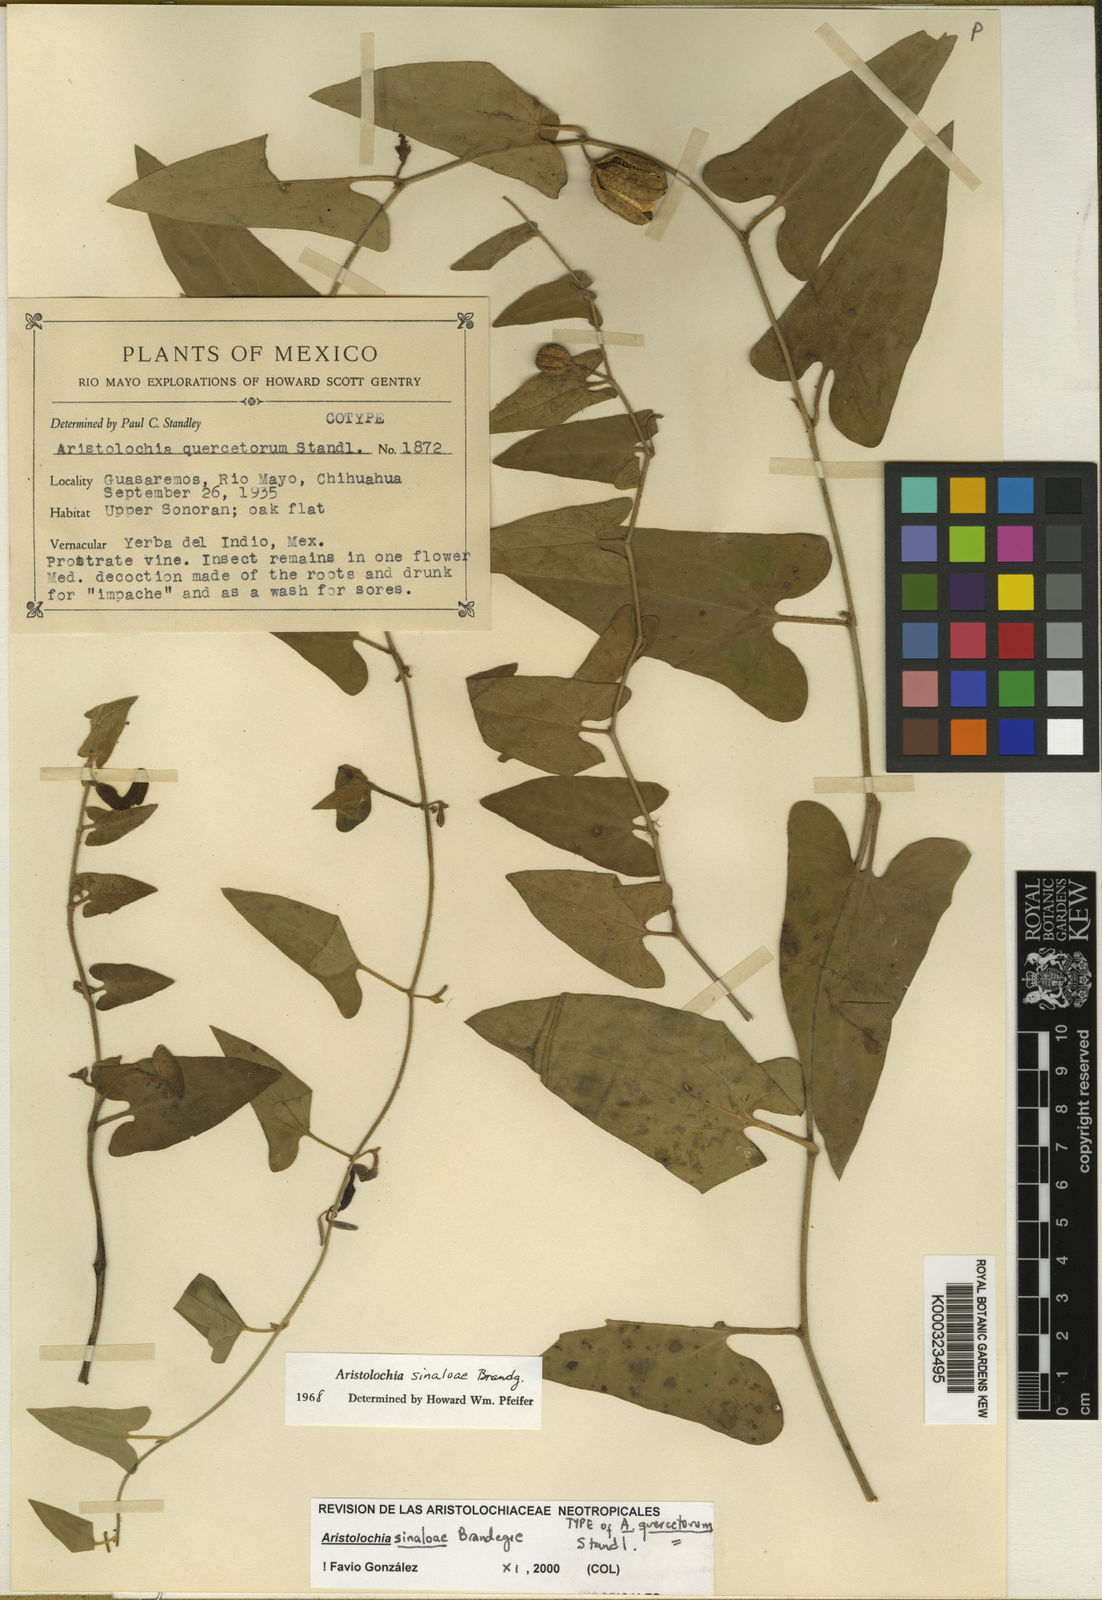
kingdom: Plantae
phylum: Tracheophyta
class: Magnoliopsida
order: Piperales
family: Aristolochiaceae
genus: Aristolochia
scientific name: Aristolochia sinaloae
